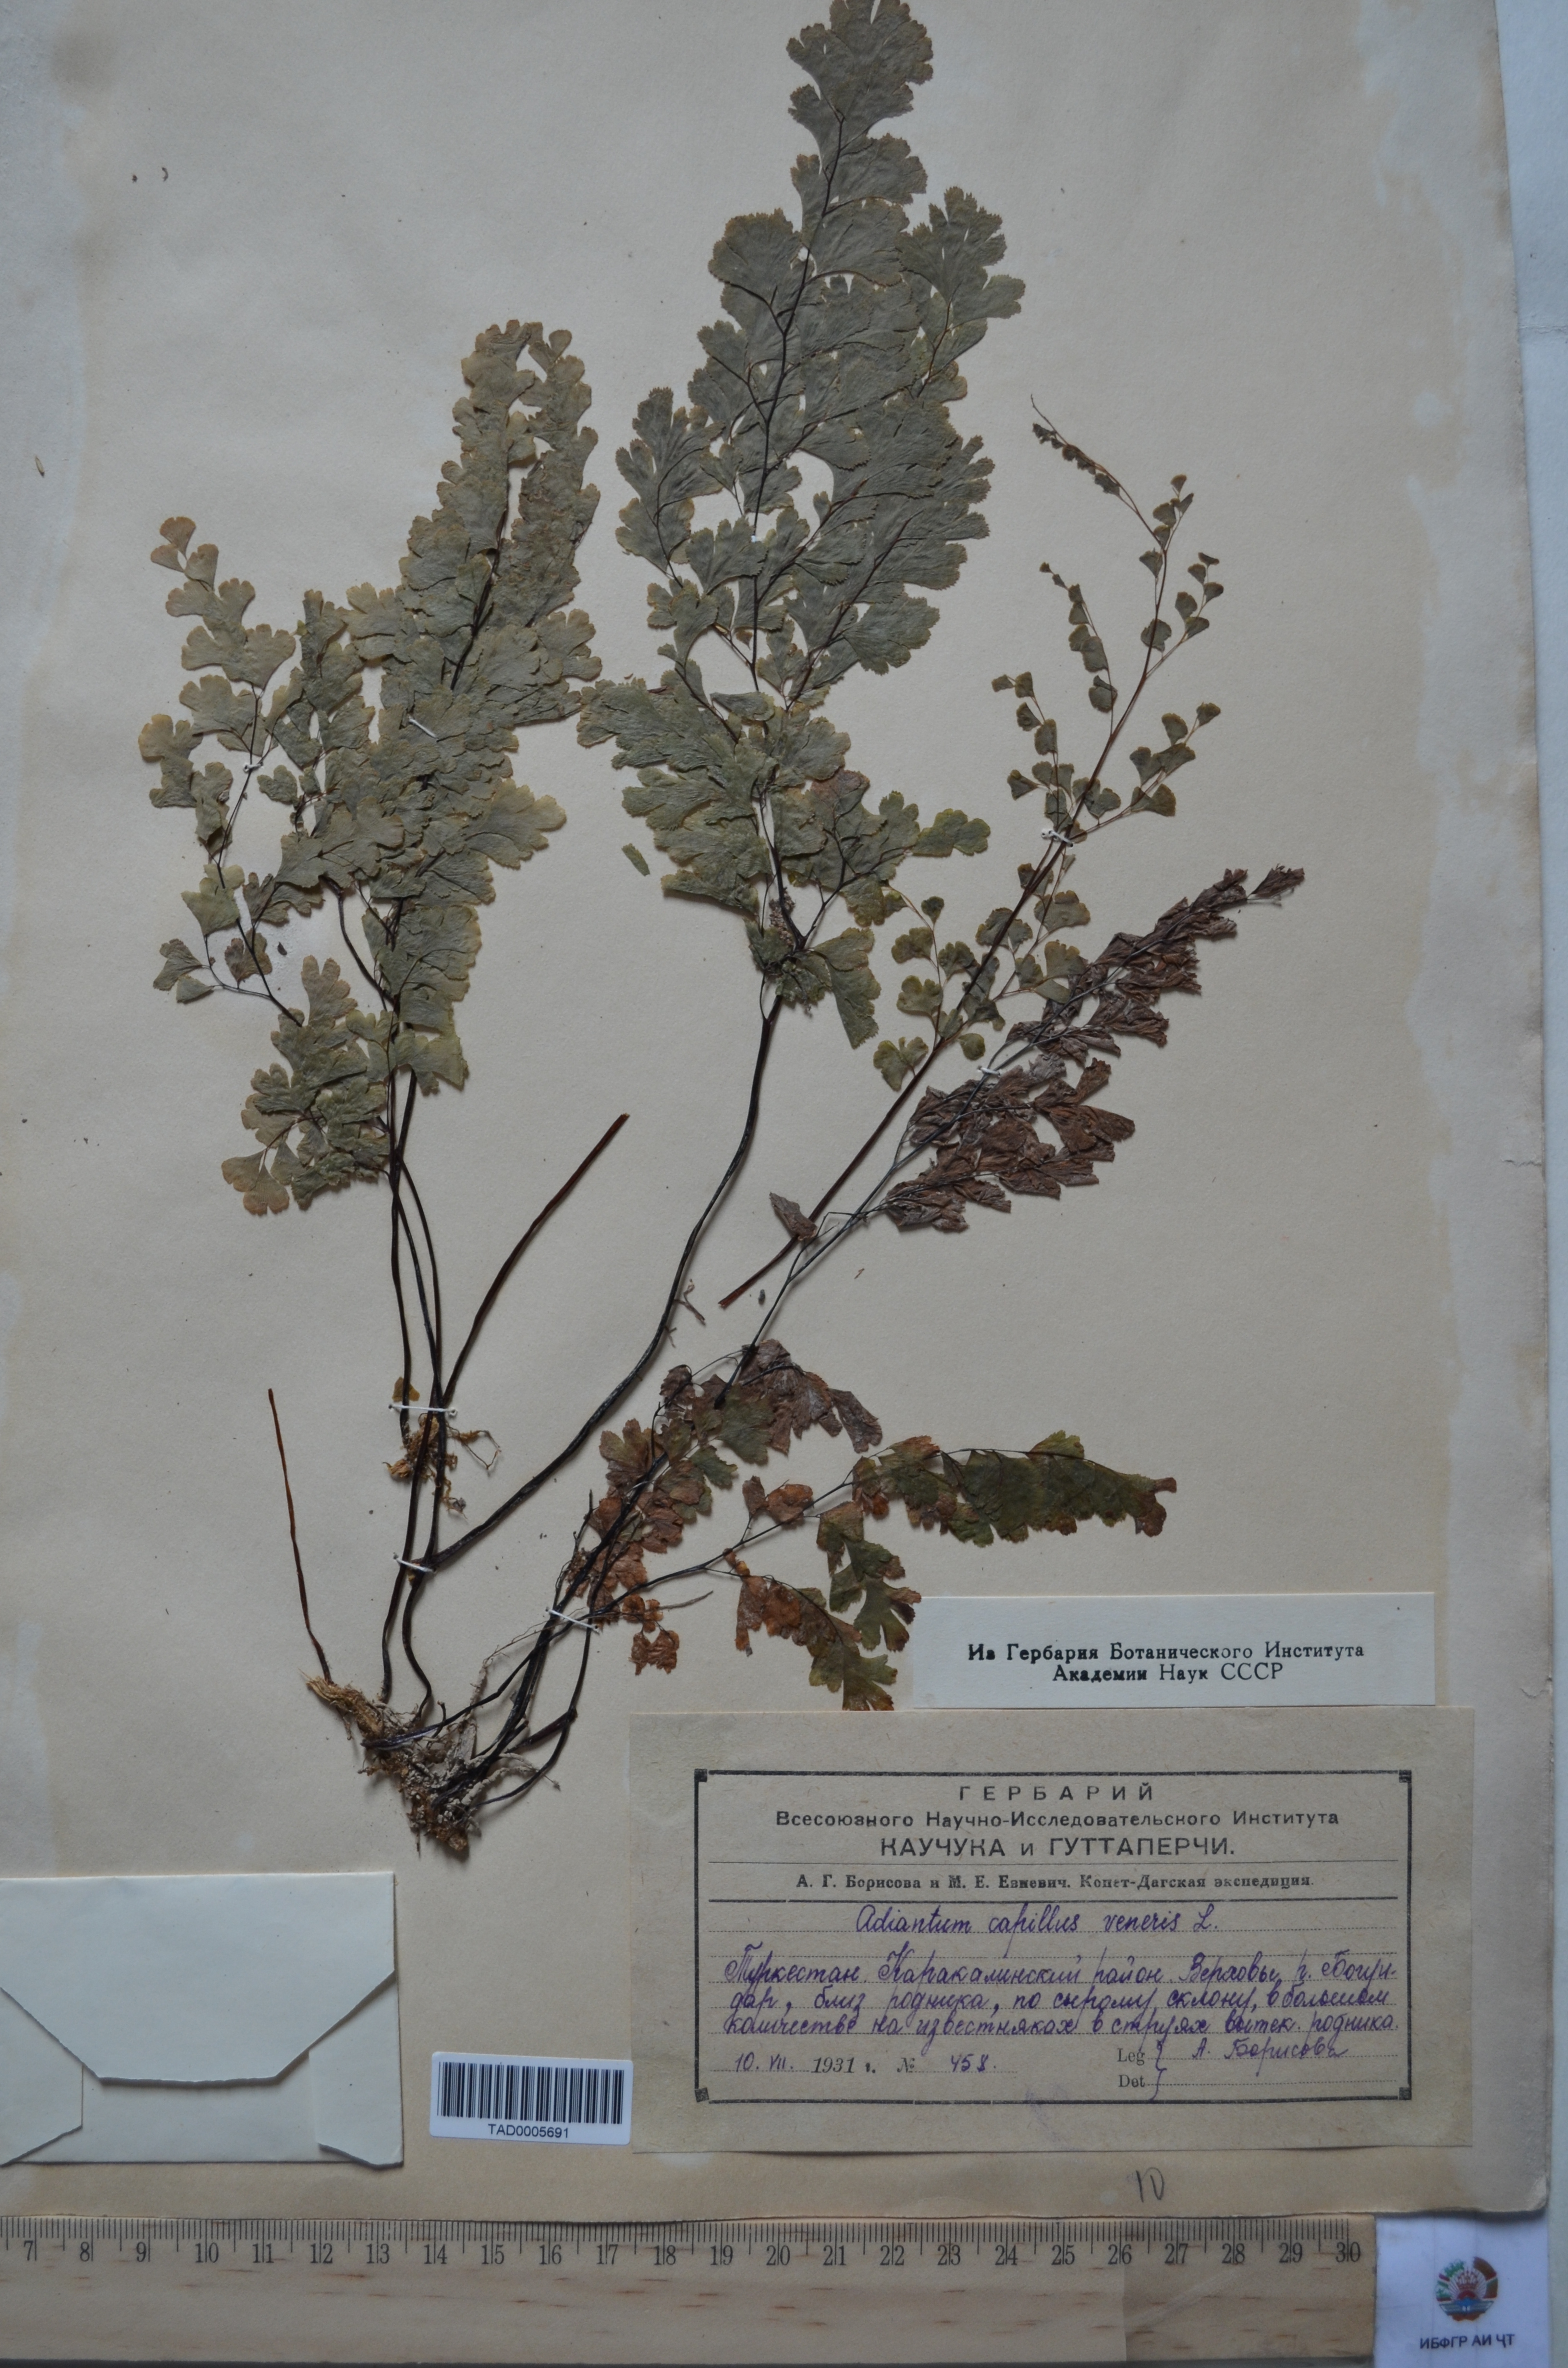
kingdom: Plantae
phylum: Tracheophyta
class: Polypodiopsida
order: Polypodiales
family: Pteridaceae
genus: Adiantum
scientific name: Adiantum capillus-veneris
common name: Maidenhair fern
